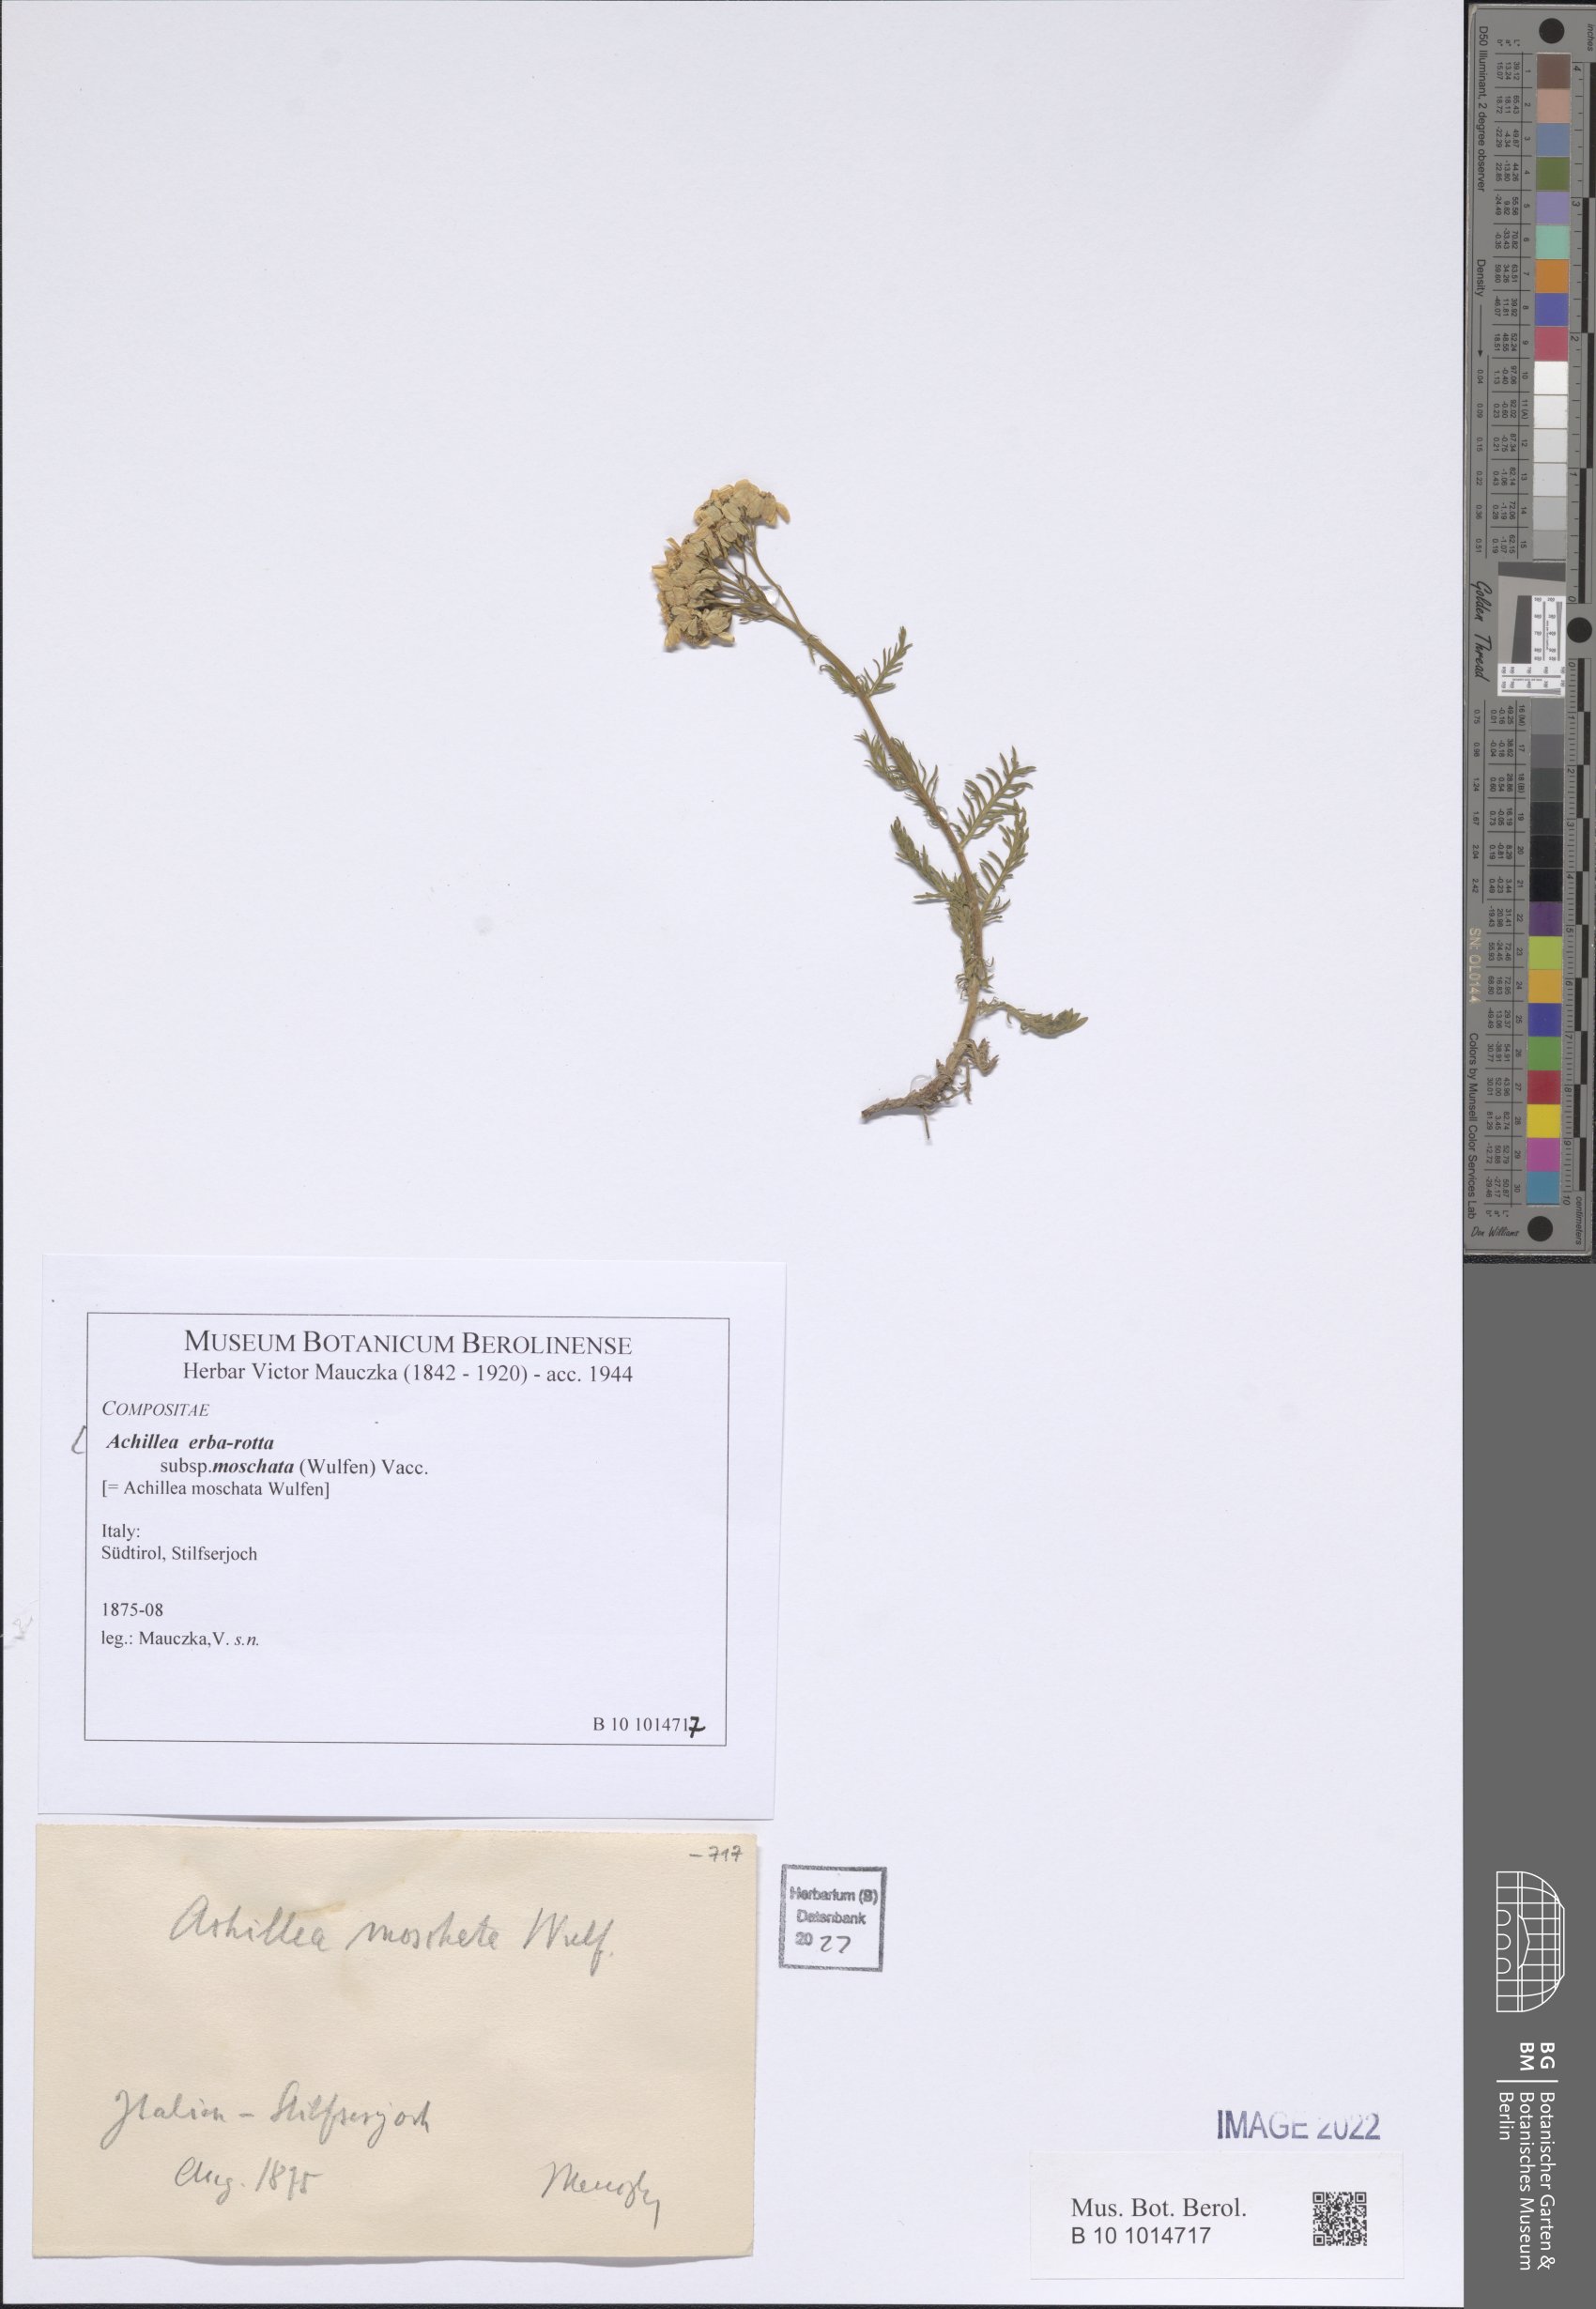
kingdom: Plantae
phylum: Tracheophyta
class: Magnoliopsida
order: Asterales
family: Asteraceae
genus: Achillea
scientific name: Achillea erba-rotta
